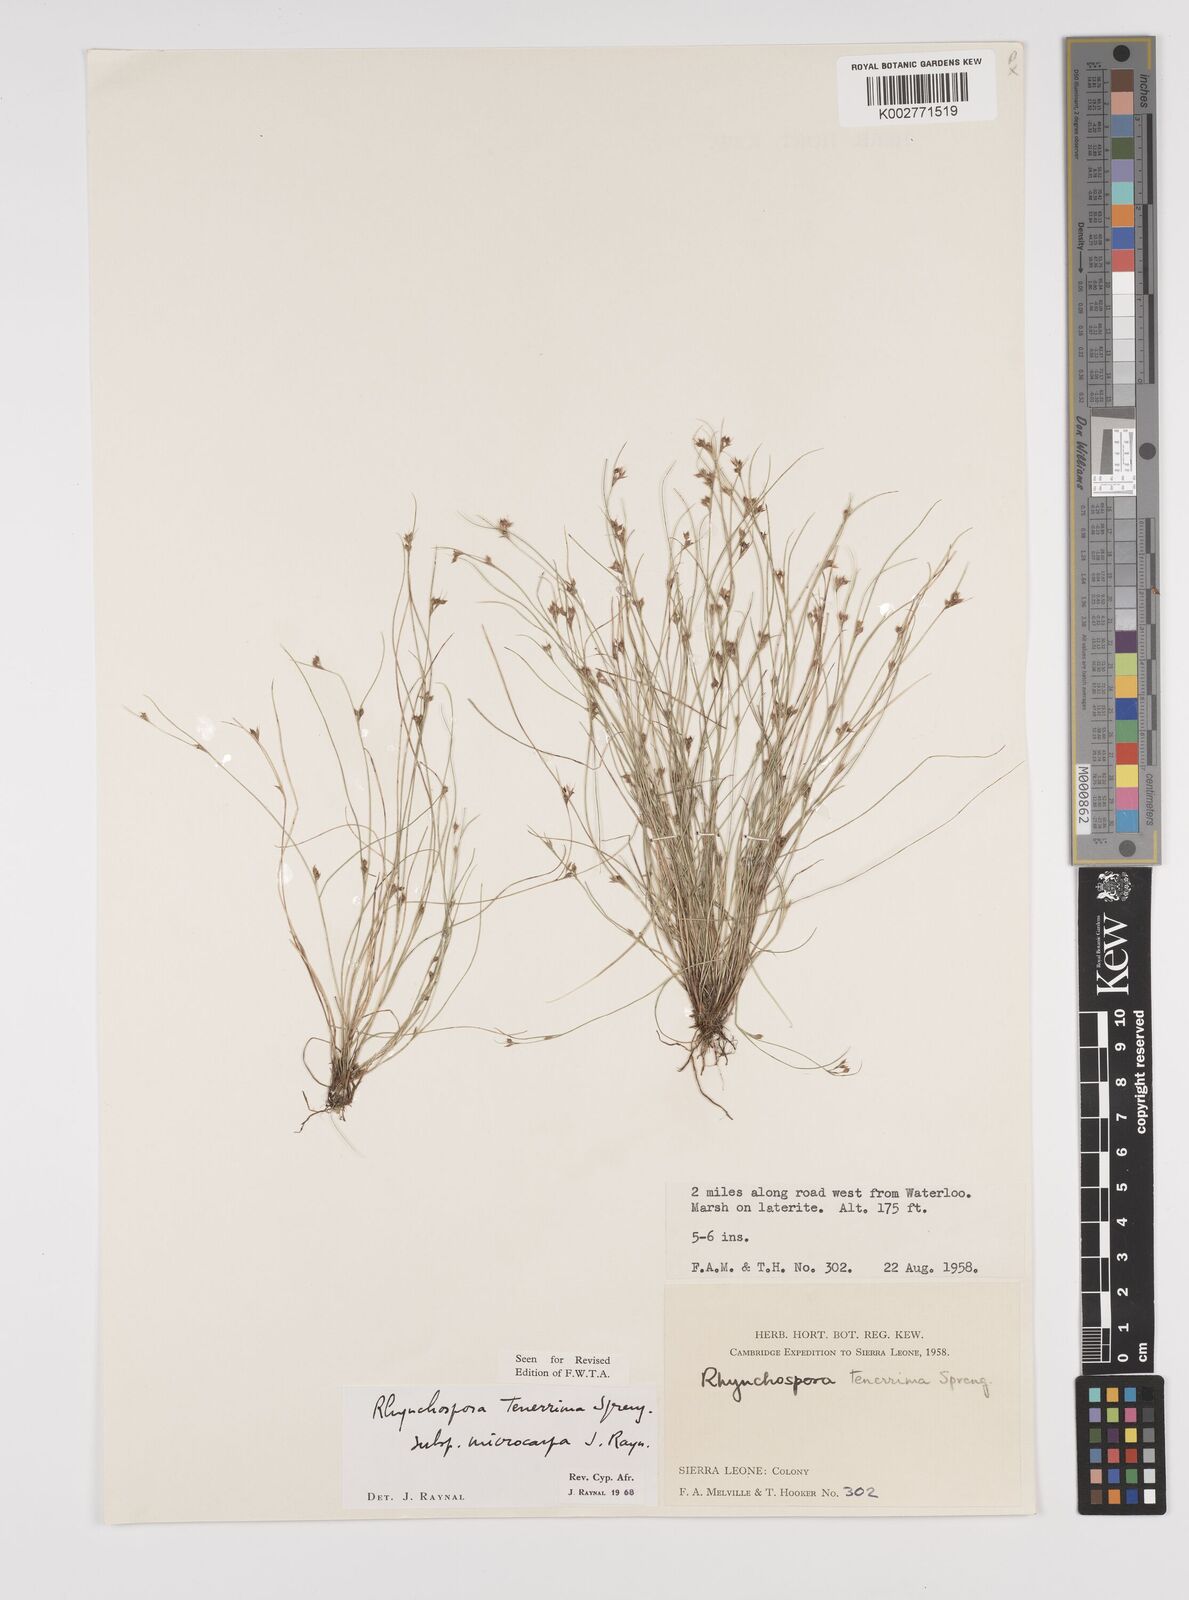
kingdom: Plantae
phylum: Tracheophyta
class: Liliopsida
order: Poales
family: Cyperaceae
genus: Rhynchospora
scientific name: Rhynchospora tenerrima
